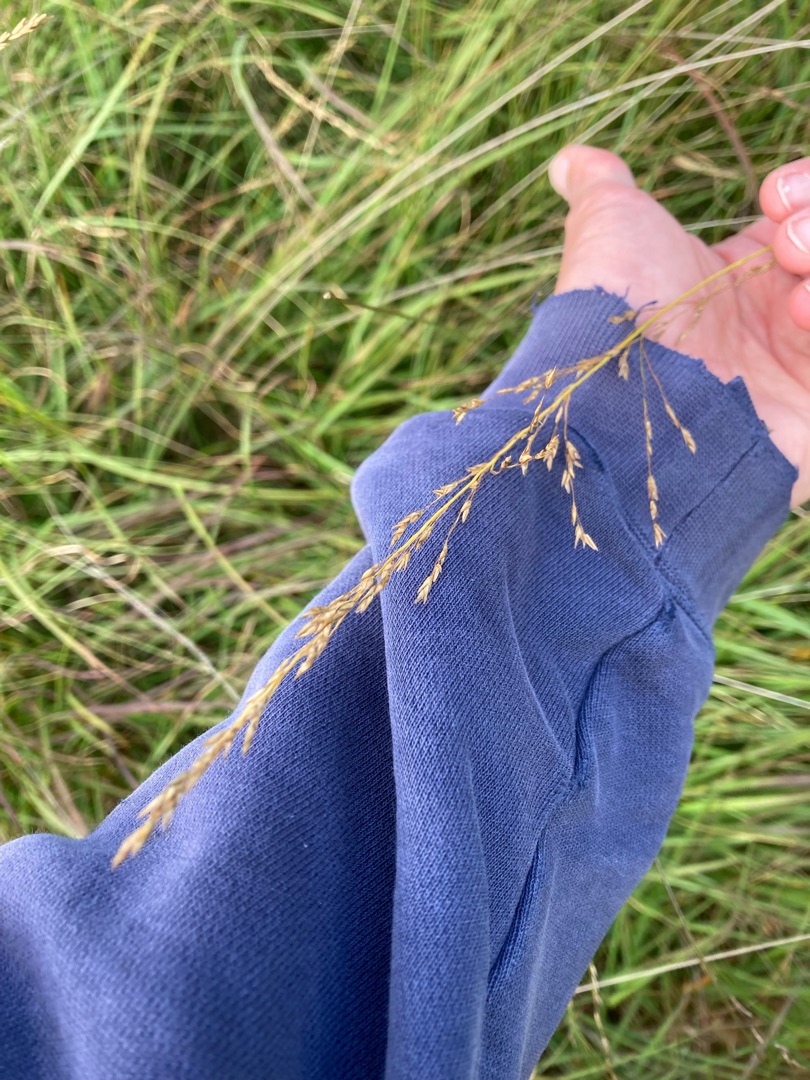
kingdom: Plantae
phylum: Tracheophyta
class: Liliopsida
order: Poales
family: Poaceae
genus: Molinia
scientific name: Molinia caerulea
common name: Blåtop
